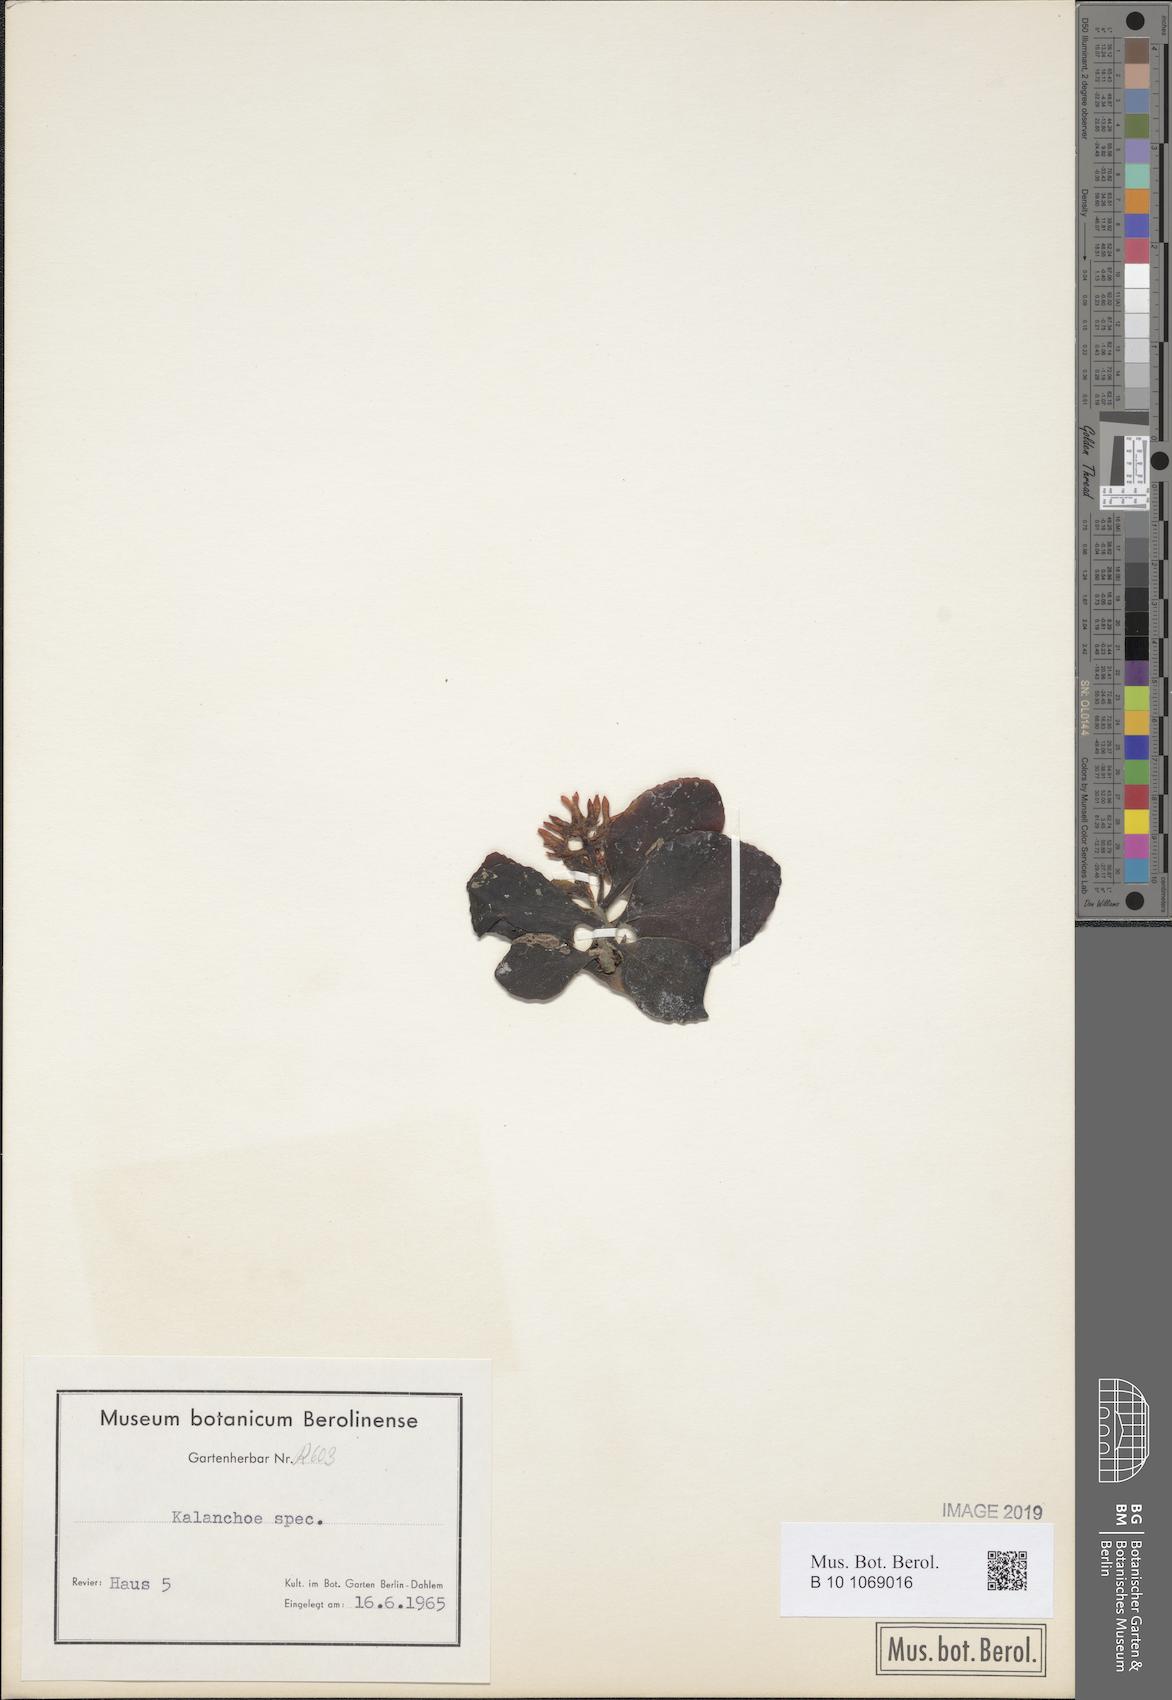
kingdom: Plantae
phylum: Tracheophyta
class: Magnoliopsida
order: Saxifragales
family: Crassulaceae
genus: Kalanchoe
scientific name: Kalanchoe
